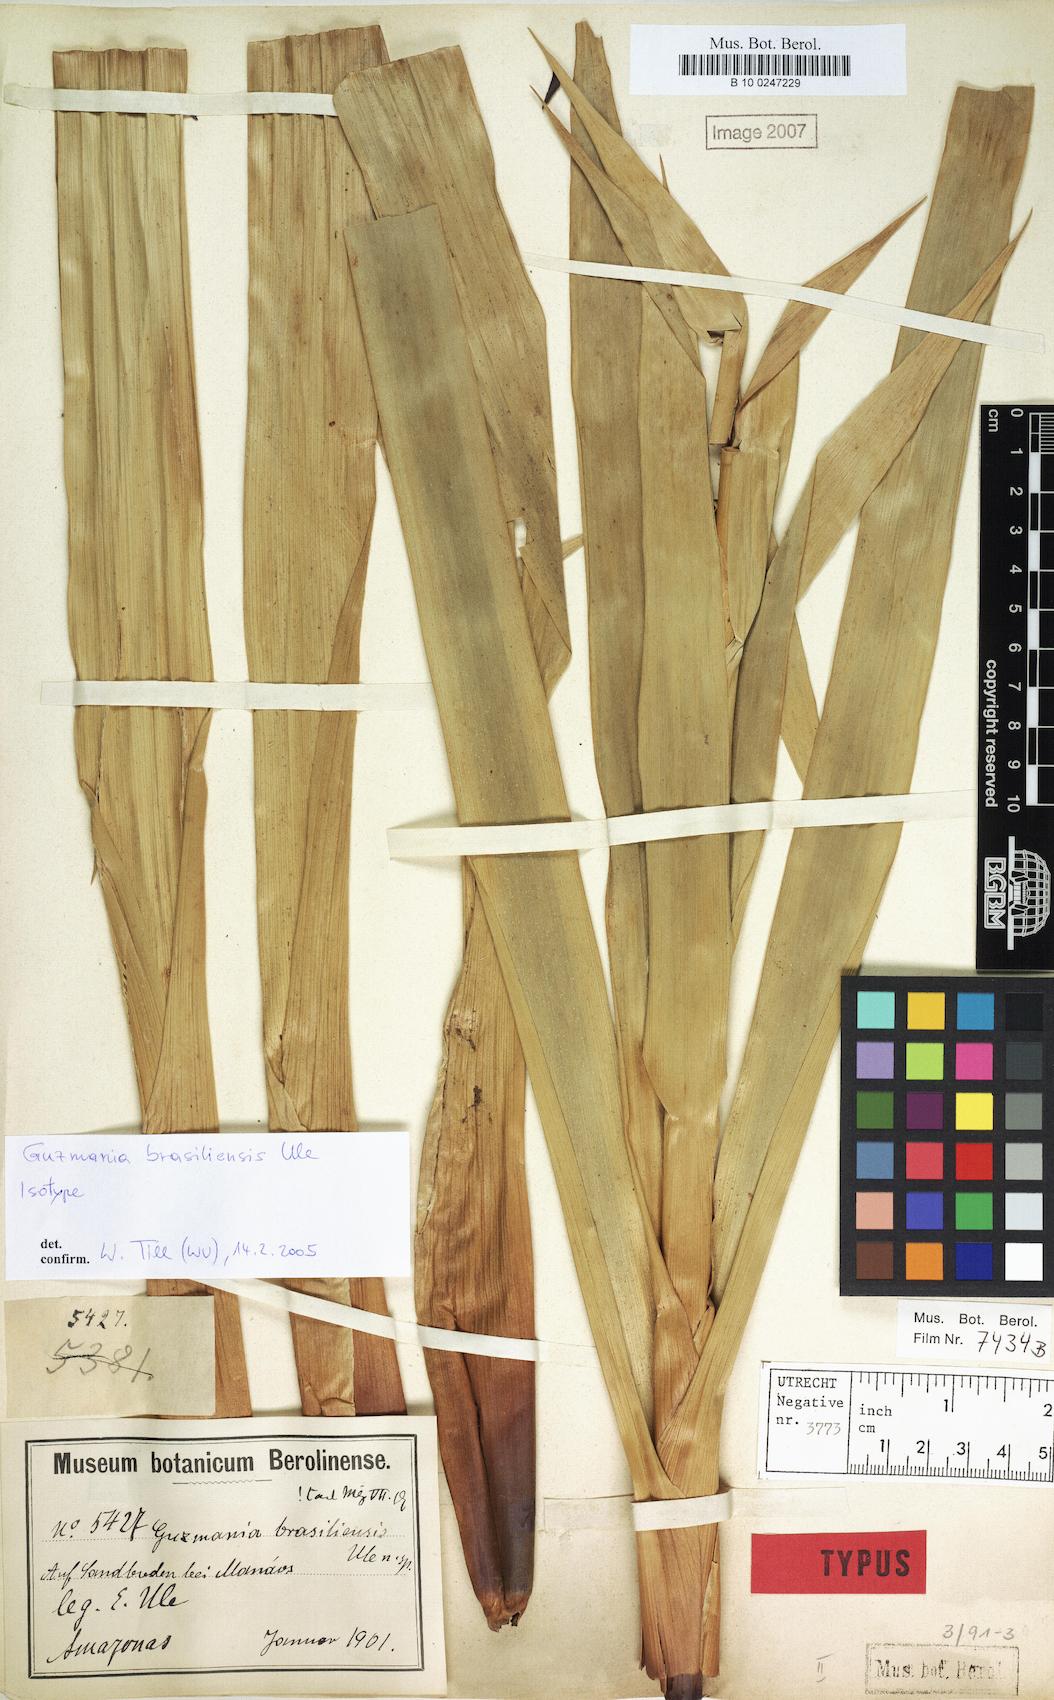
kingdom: Plantae
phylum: Tracheophyta
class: Liliopsida
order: Poales
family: Bromeliaceae
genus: Guzmania
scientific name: Guzmania brasiliensis
